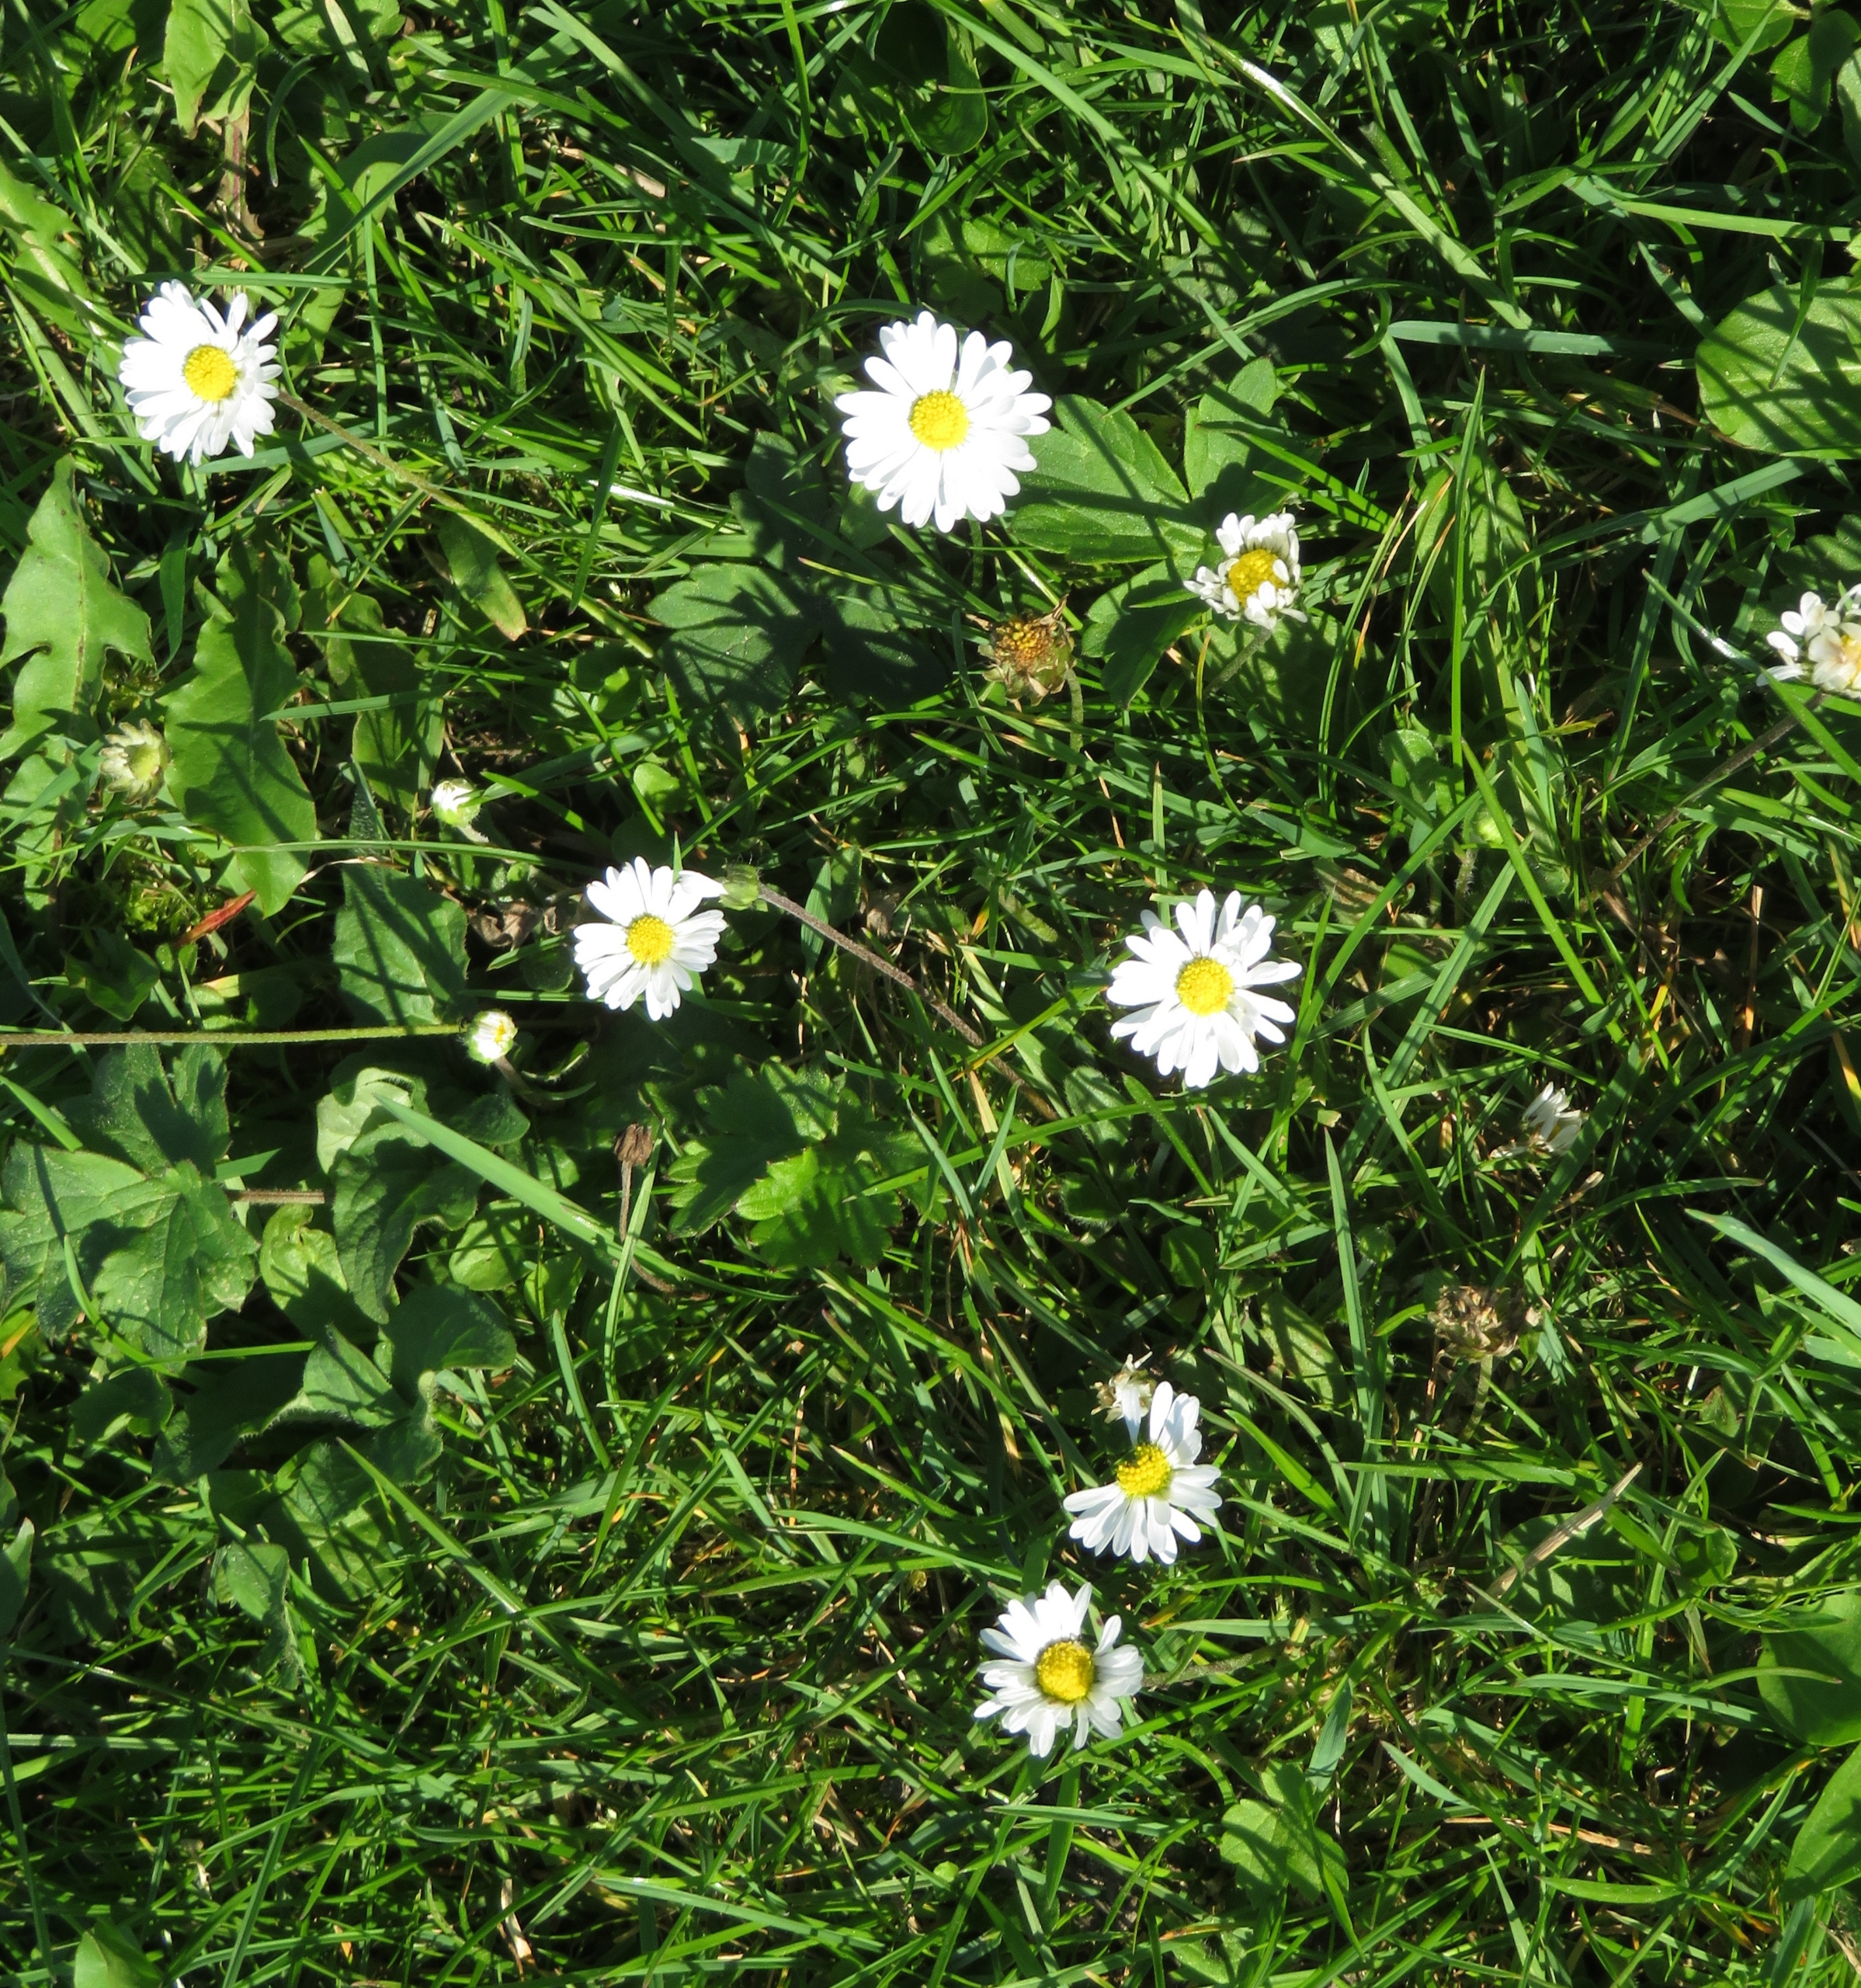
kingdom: Plantae
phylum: Tracheophyta
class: Magnoliopsida
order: Asterales
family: Asteraceae
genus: Bellis
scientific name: Bellis perennis
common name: Tusindfryd
